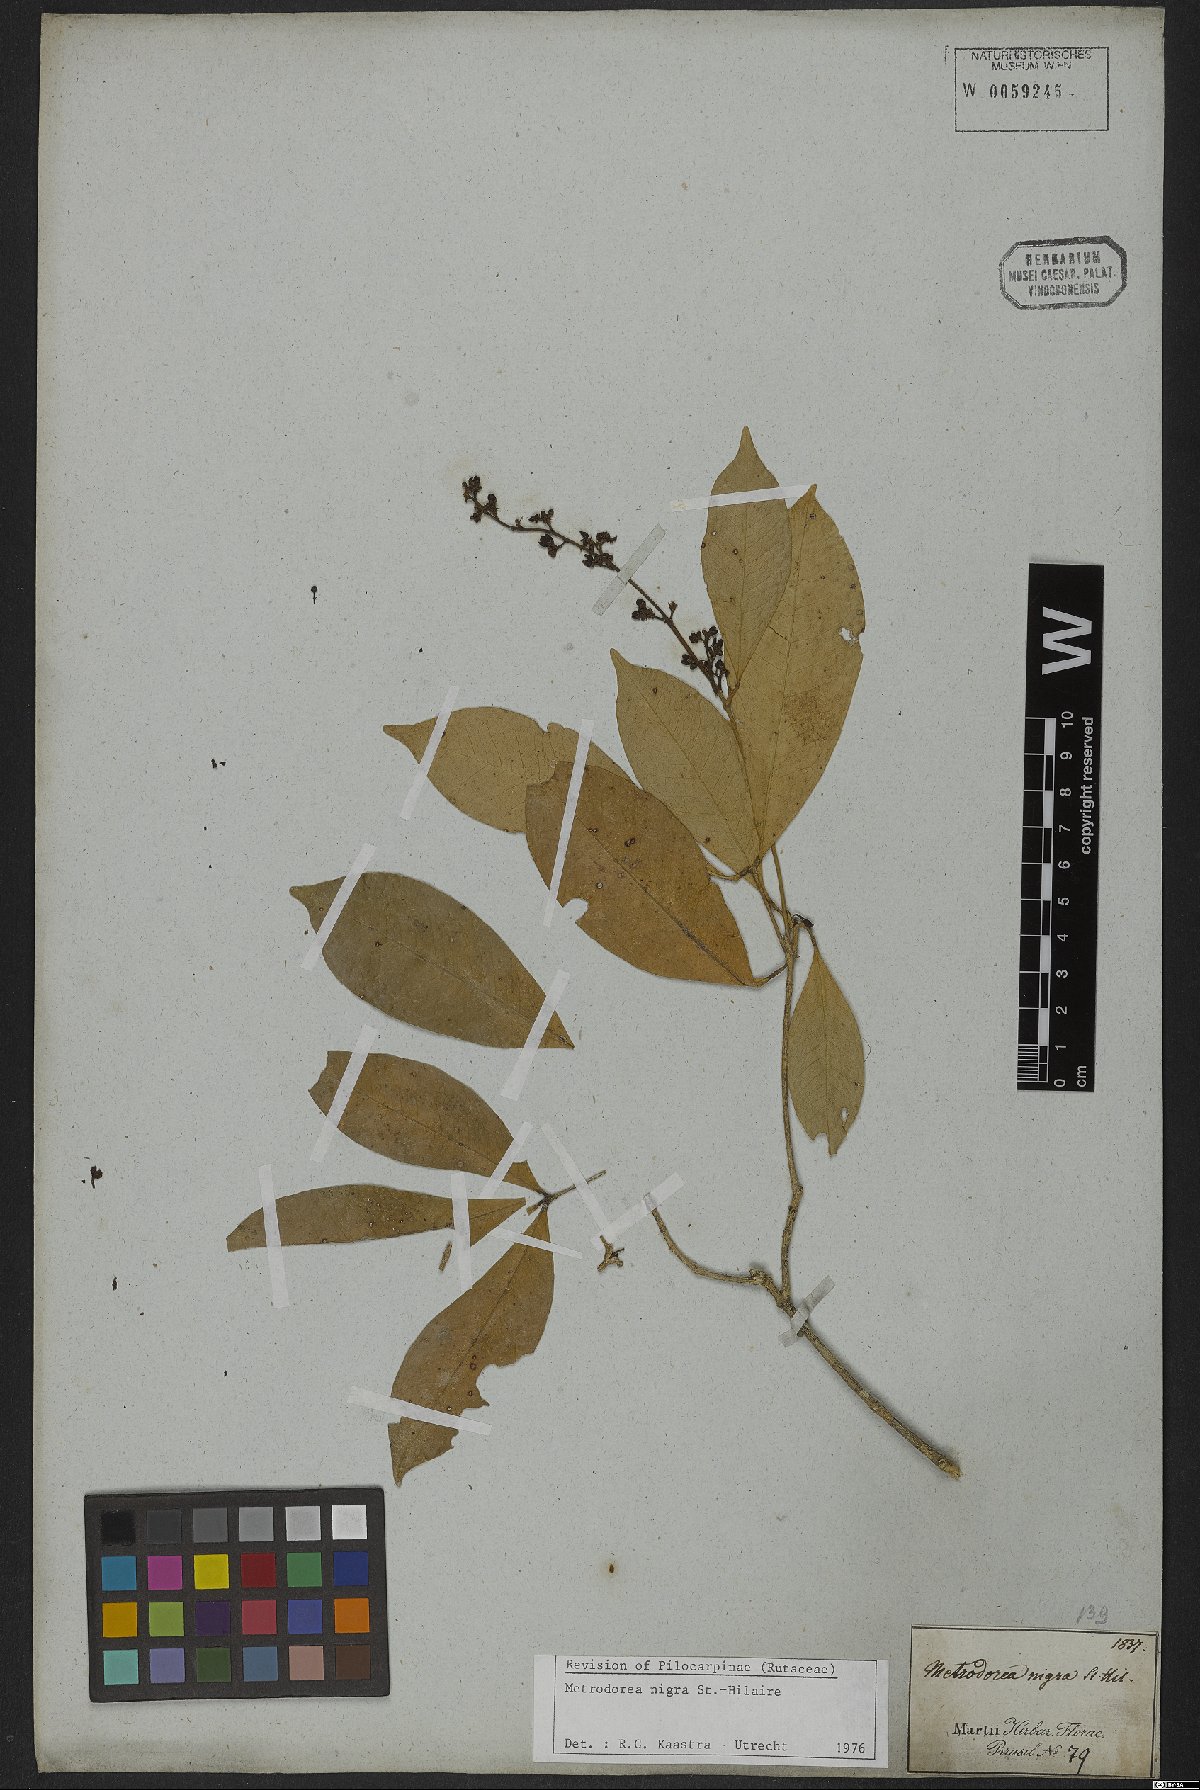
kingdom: Plantae
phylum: Tracheophyta
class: Magnoliopsida
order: Sapindales
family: Rutaceae
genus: Metrodorea
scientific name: Metrodorea nigra
